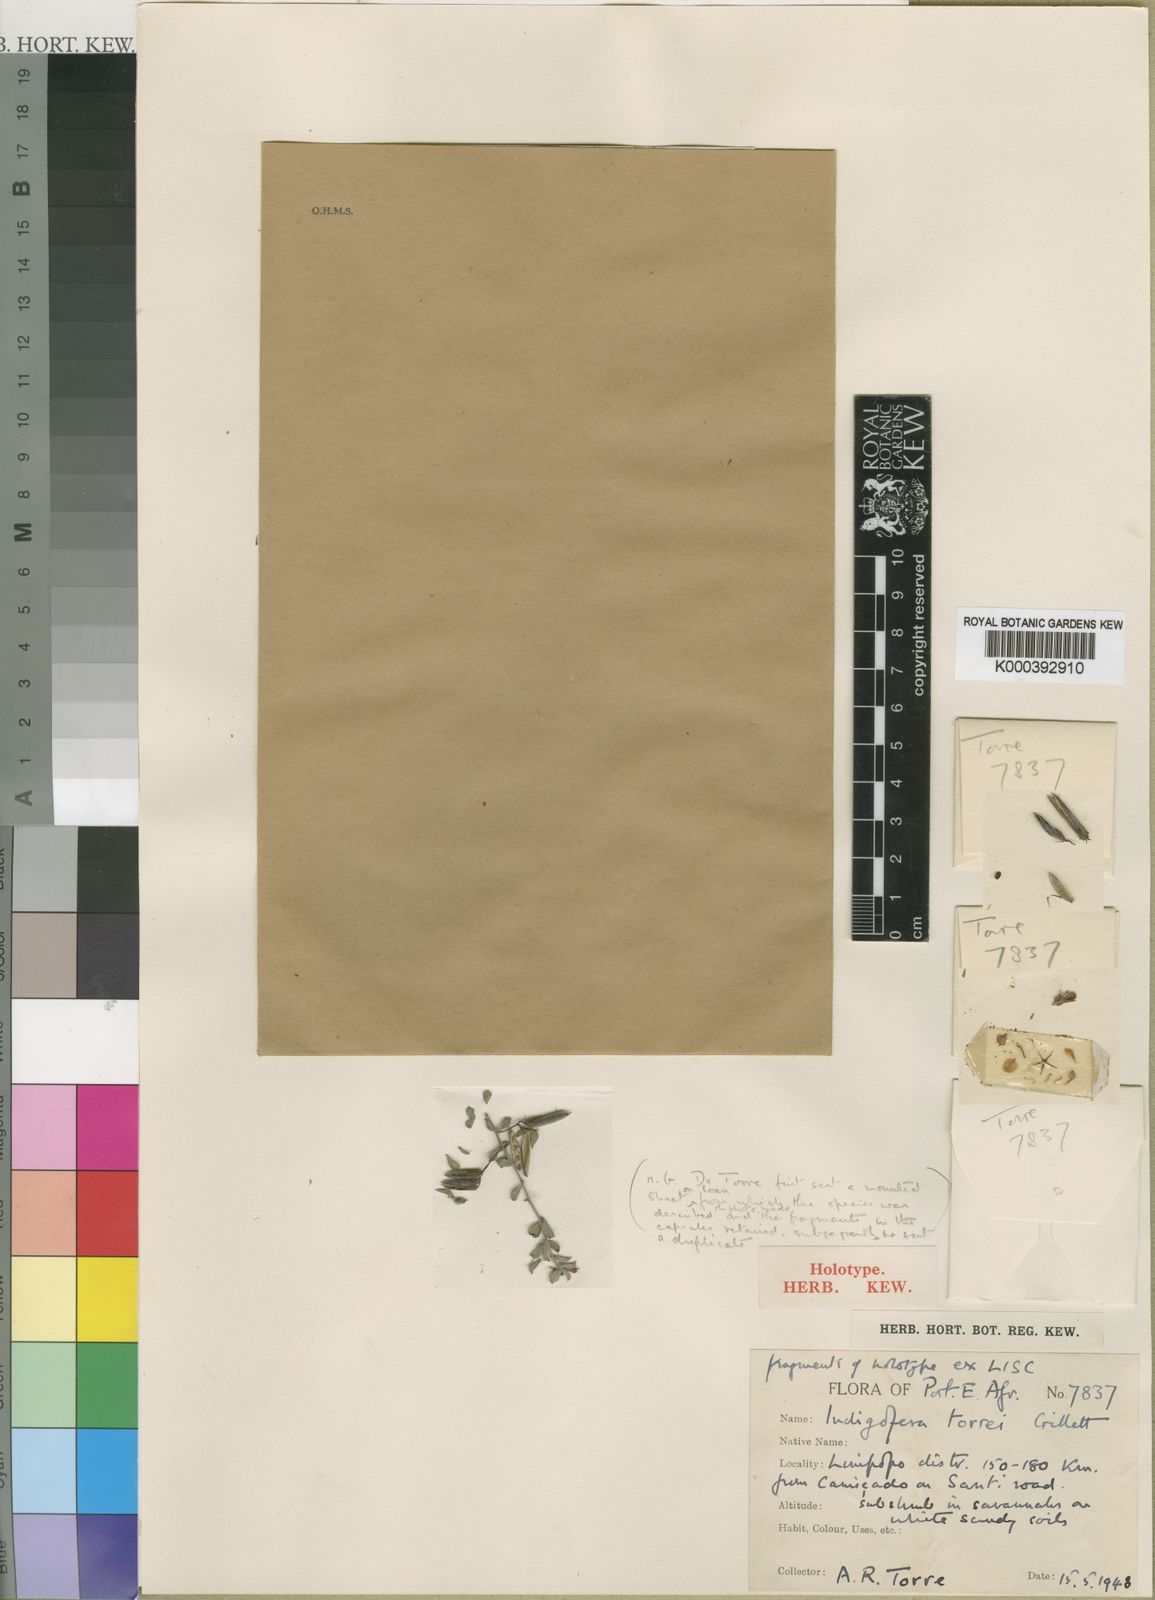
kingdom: Plantae
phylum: Tracheophyta
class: Magnoliopsida
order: Fabales
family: Fabaceae
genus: Indigofera
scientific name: Indigofera torrei
